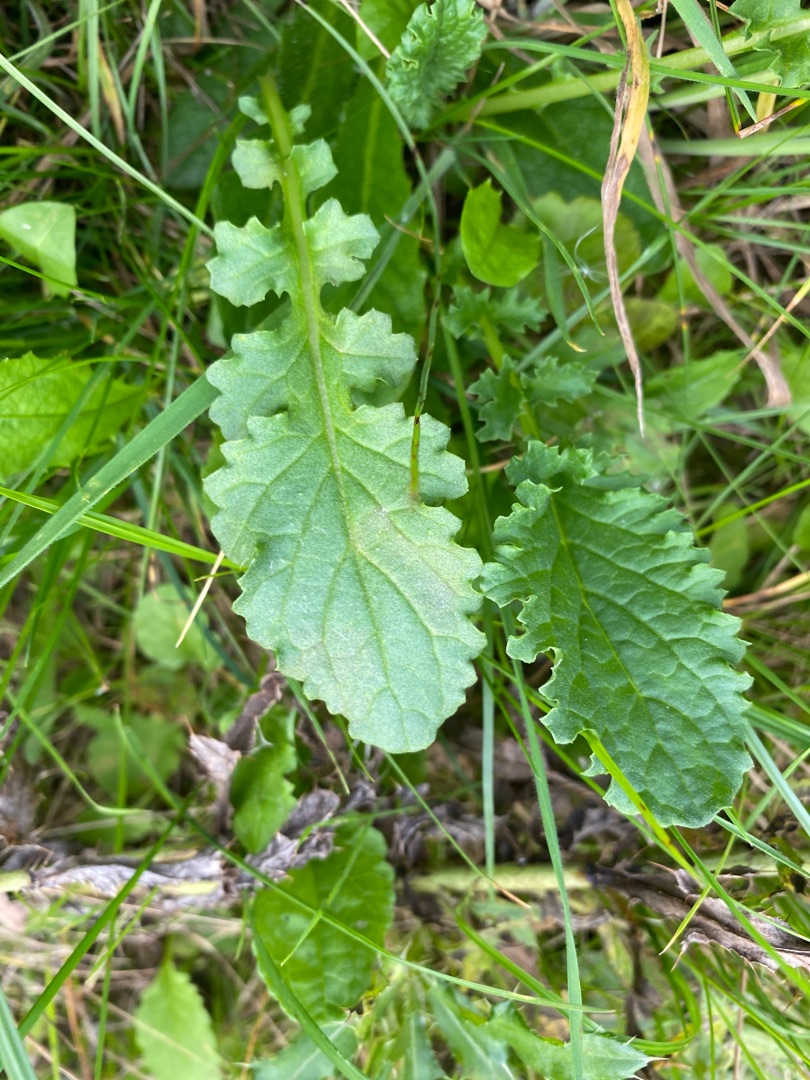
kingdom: Plantae
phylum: Tracheophyta
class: Magnoliopsida
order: Asterales
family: Asteraceae
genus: Jacobaea
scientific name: Jacobaea vulgaris
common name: Eng-brandbæger
